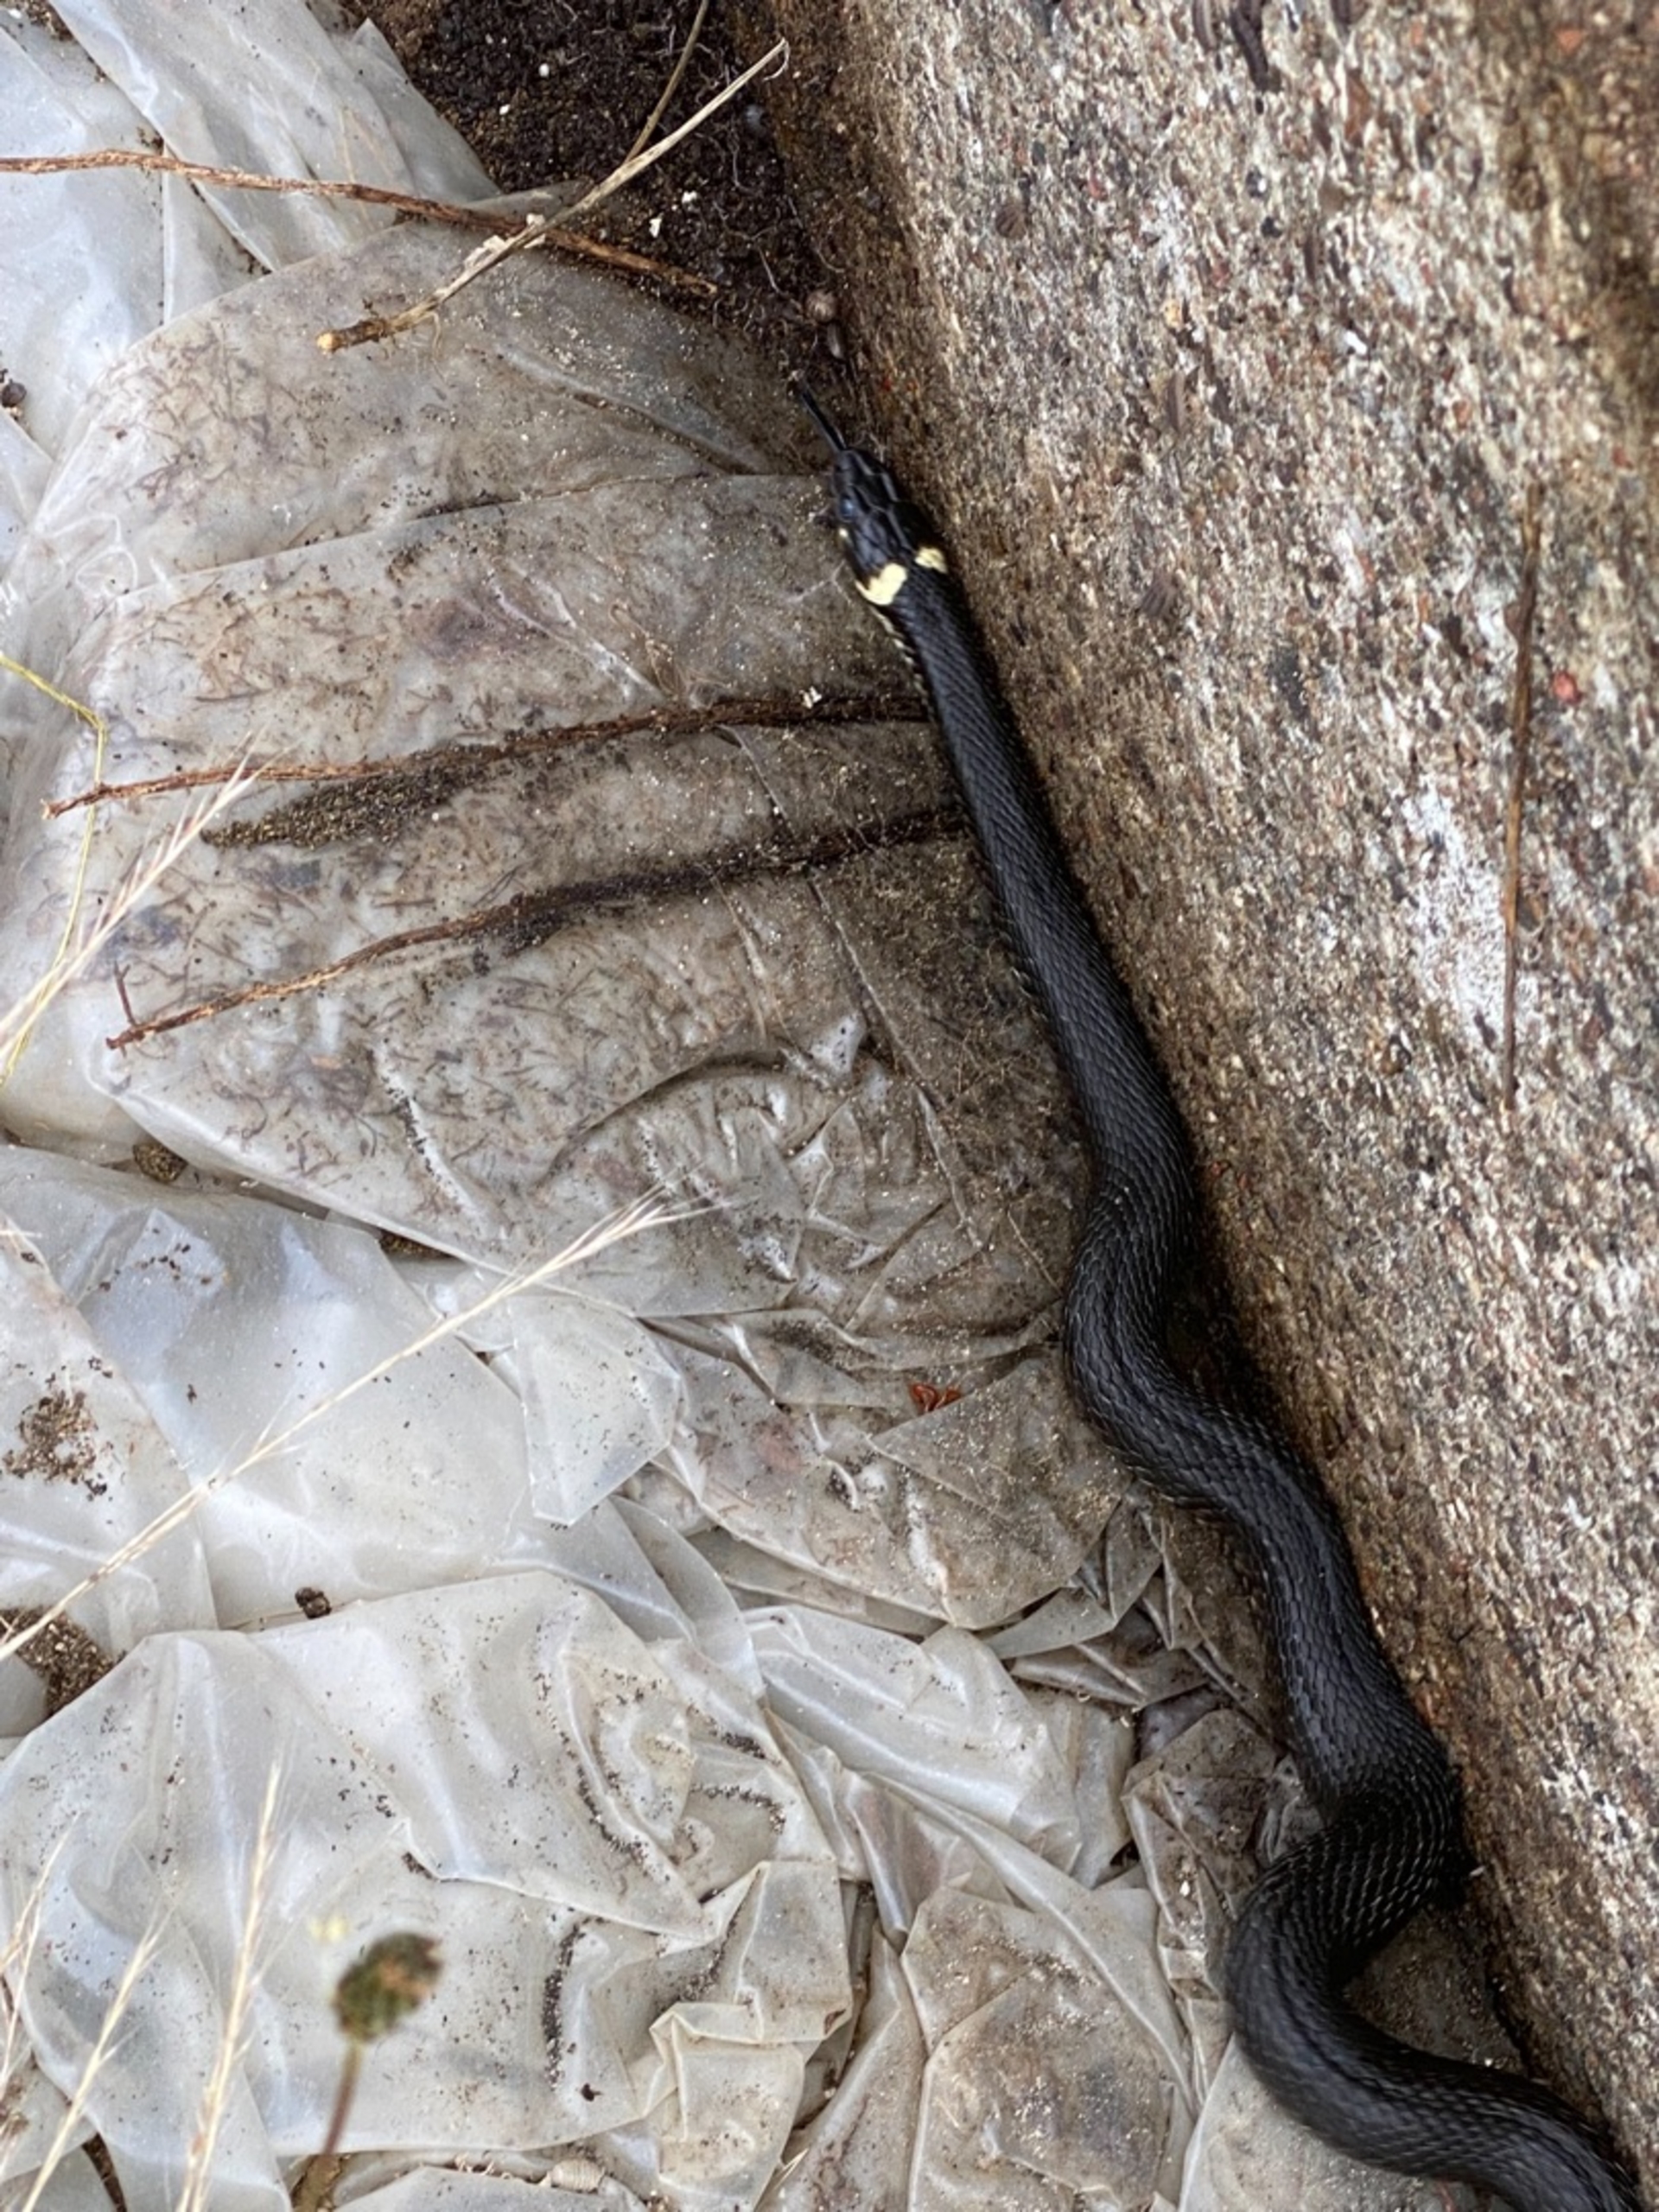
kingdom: Animalia
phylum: Chordata
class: Squamata
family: Colubridae
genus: Natrix
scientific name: Natrix natrix
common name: Snog
